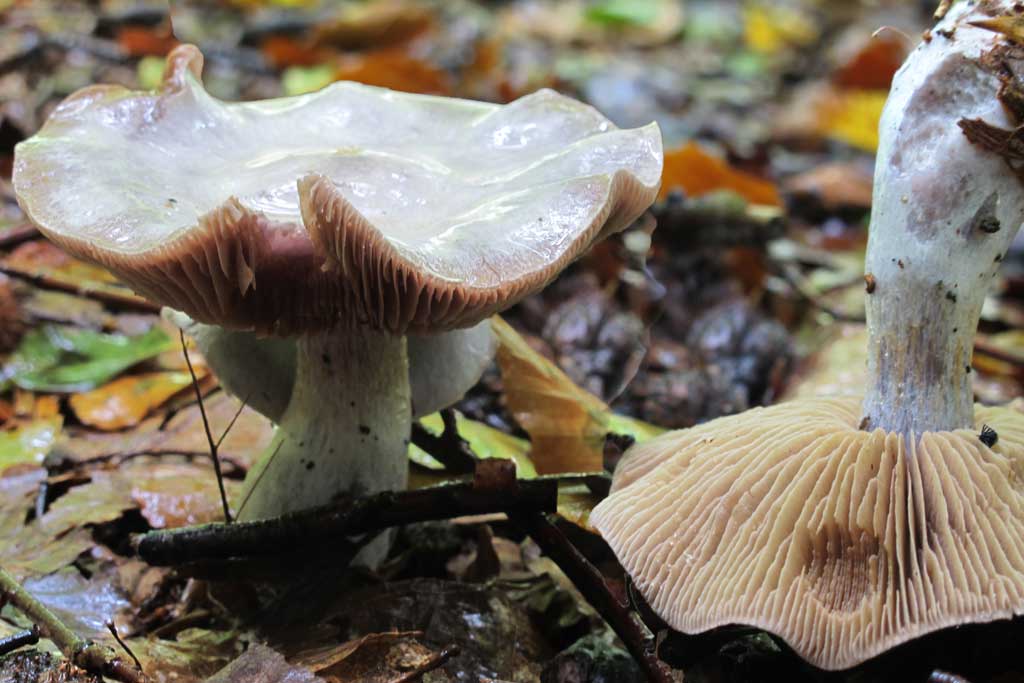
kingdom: Fungi
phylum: Basidiomycota
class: Agaricomycetes
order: Agaricales
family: Cortinariaceae
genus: Cortinarius
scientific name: Cortinarius alboviolaceus
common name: lysviolet slørhat
